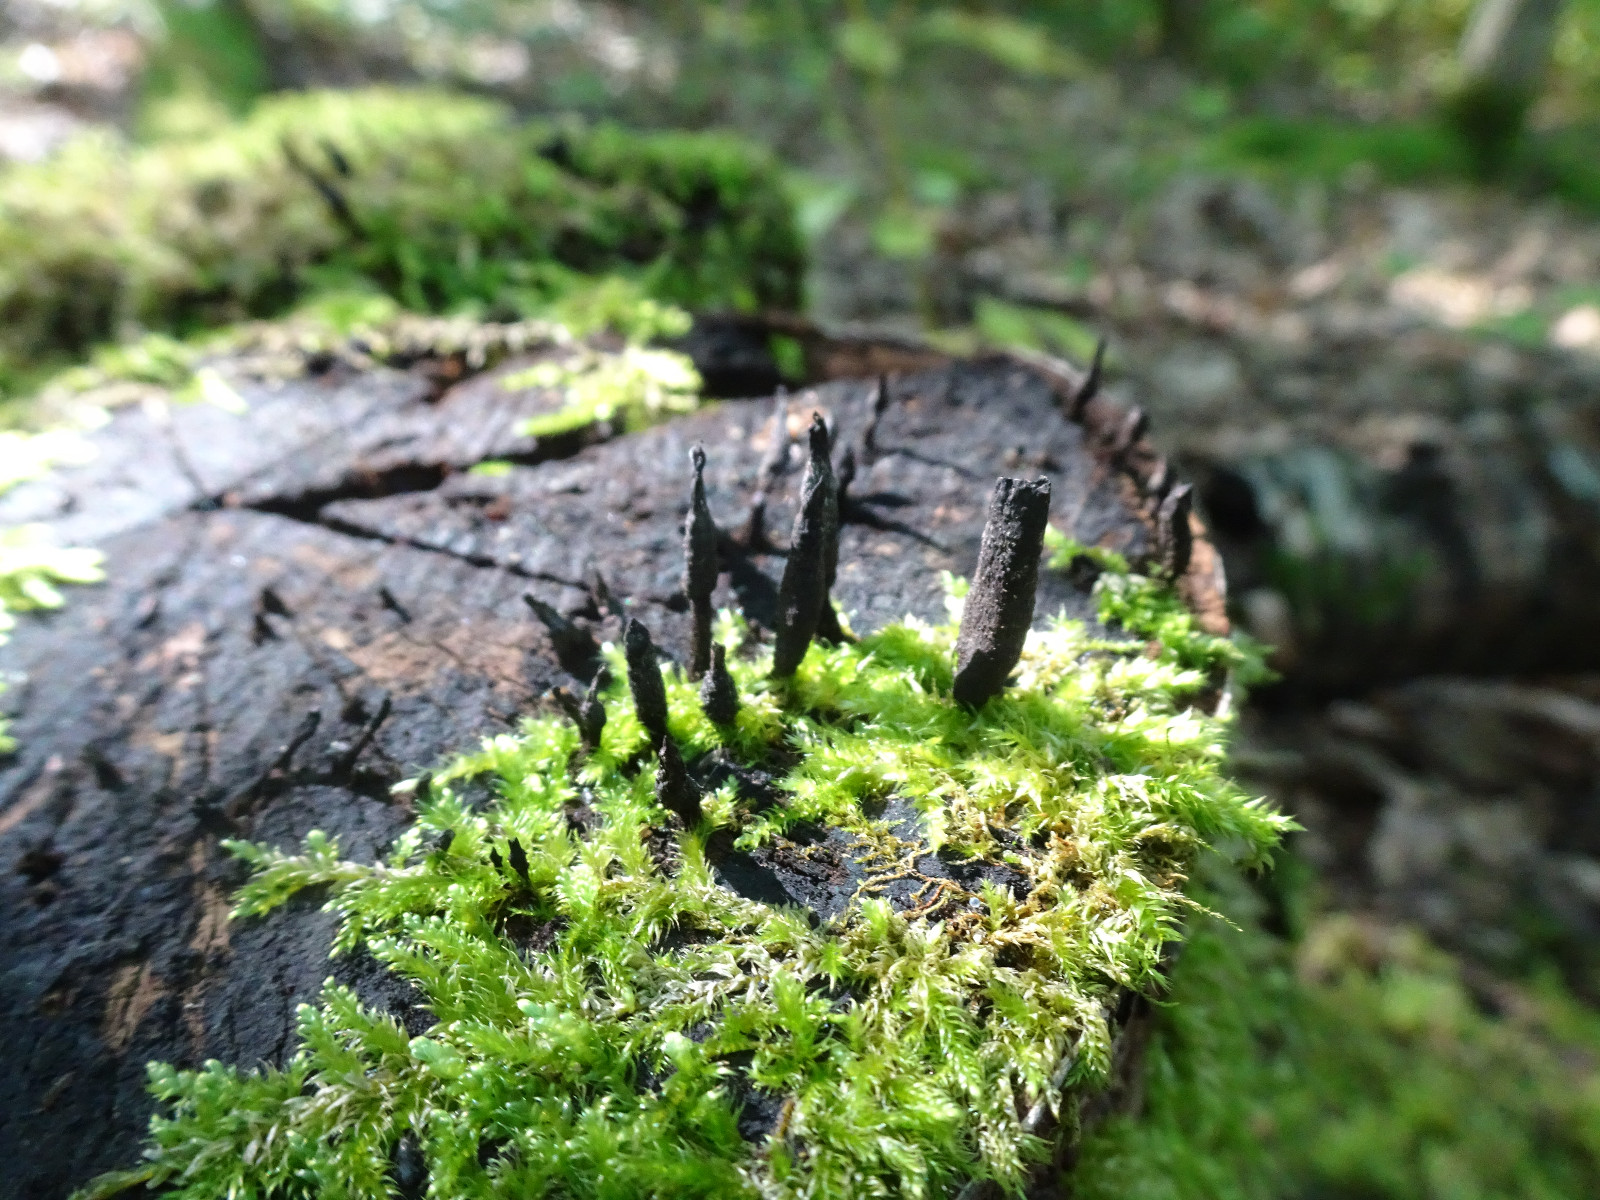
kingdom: Fungi
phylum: Ascomycota
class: Sordariomycetes
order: Xylariales
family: Xylariaceae
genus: Xylaria
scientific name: Xylaria hypoxylon
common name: grenet stødsvamp
